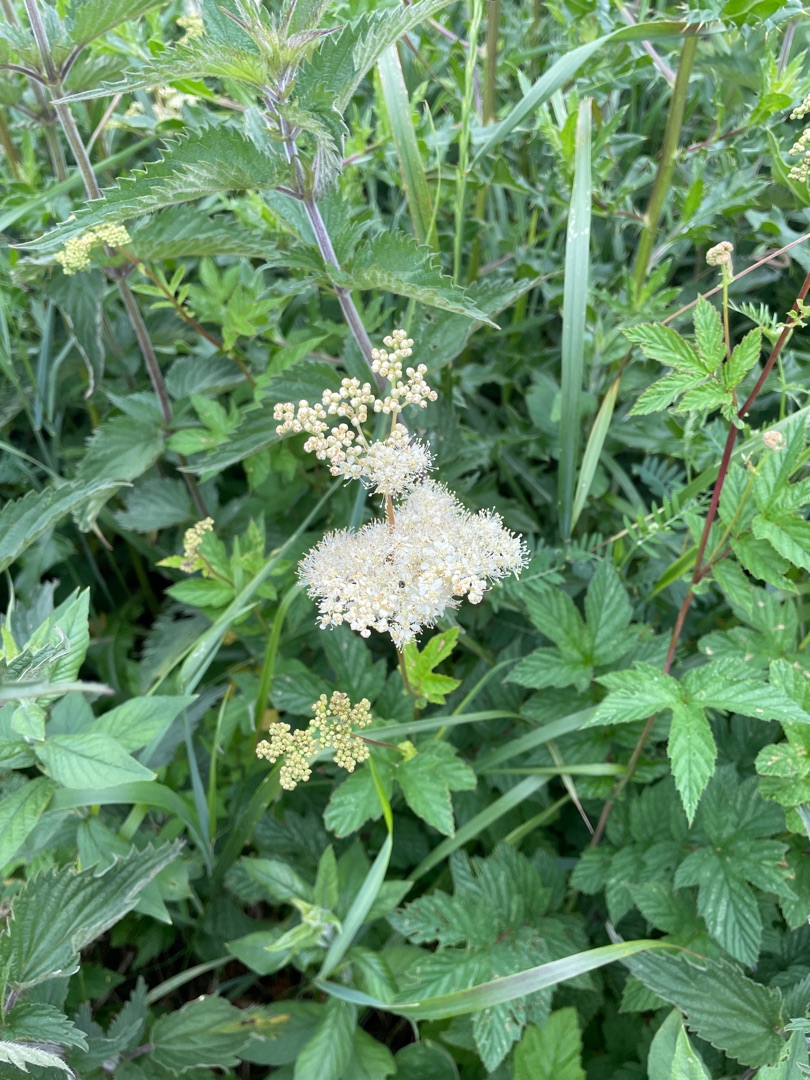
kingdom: Plantae
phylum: Tracheophyta
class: Magnoliopsida
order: Rosales
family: Rosaceae
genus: Filipendula
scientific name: Filipendula ulmaria
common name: Almindelig mjødurt
